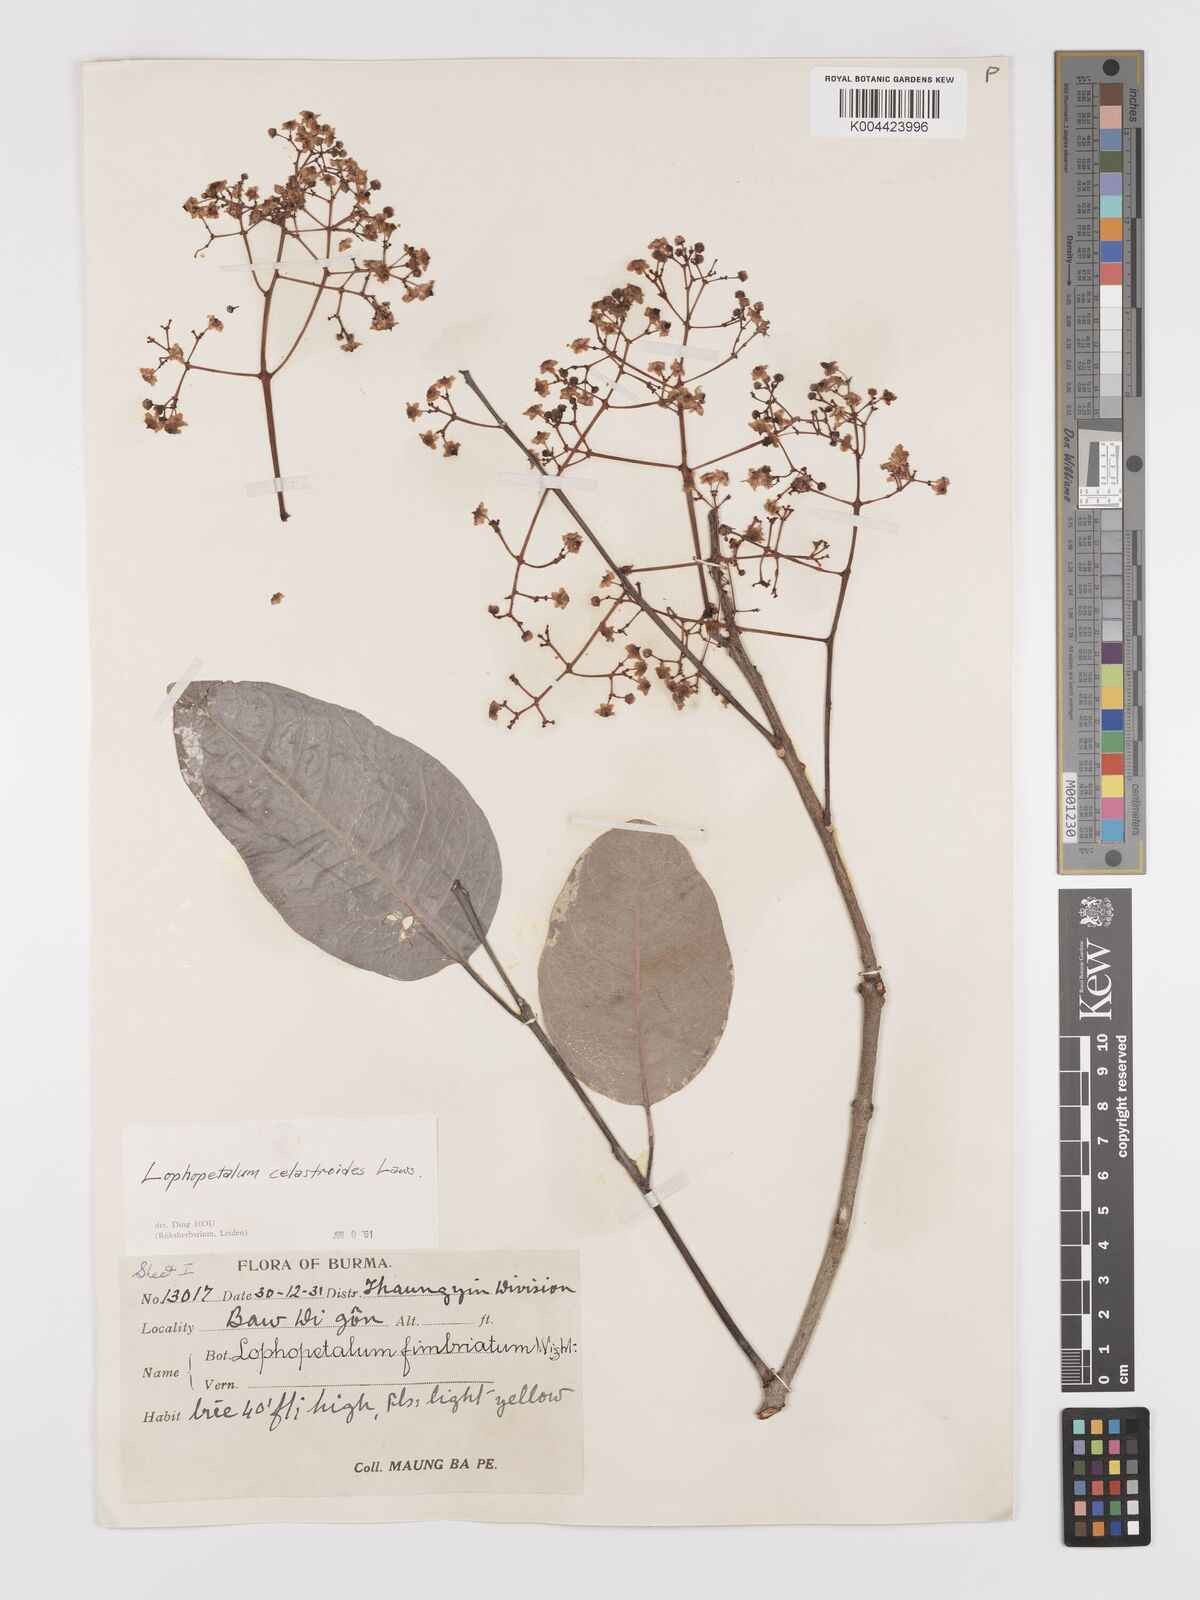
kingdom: Plantae
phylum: Tracheophyta
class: Magnoliopsida
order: Celastrales
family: Celastraceae
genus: Lophopetalum
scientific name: Lophopetalum wightianum
